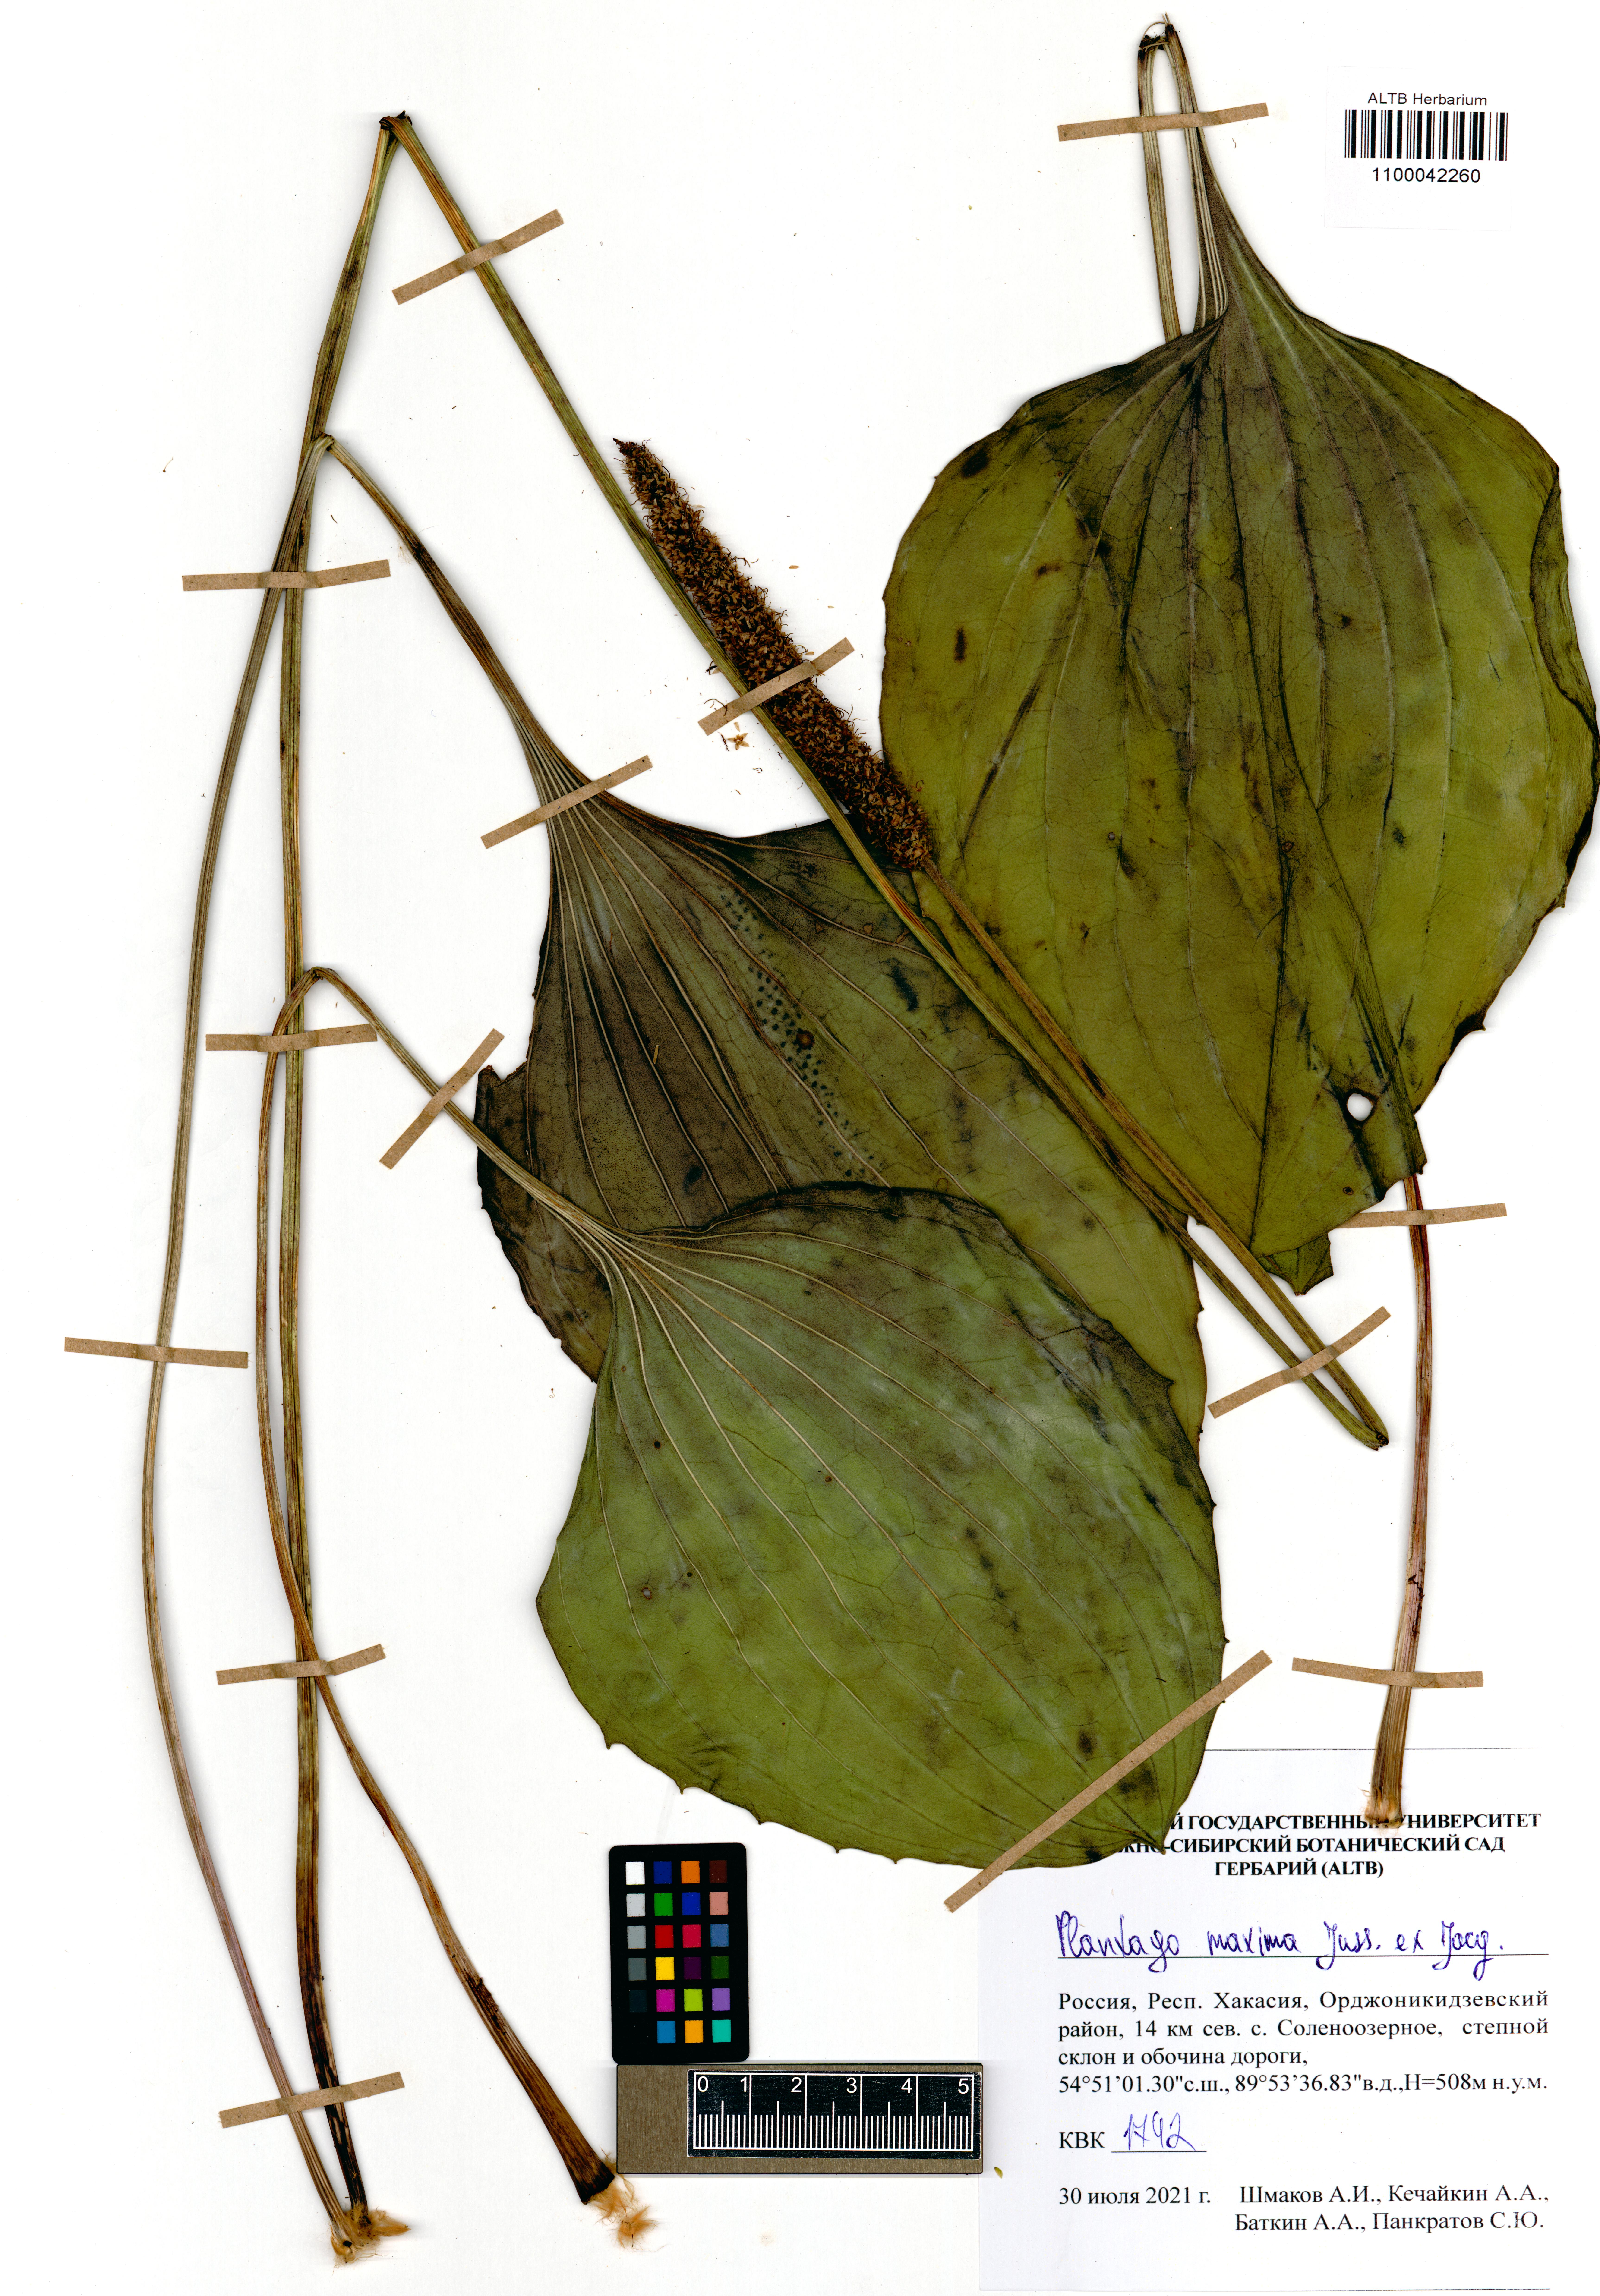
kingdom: Plantae
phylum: Tracheophyta
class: Magnoliopsida
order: Lamiales
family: Plantaginaceae
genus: Plantago
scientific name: Plantago maxima
